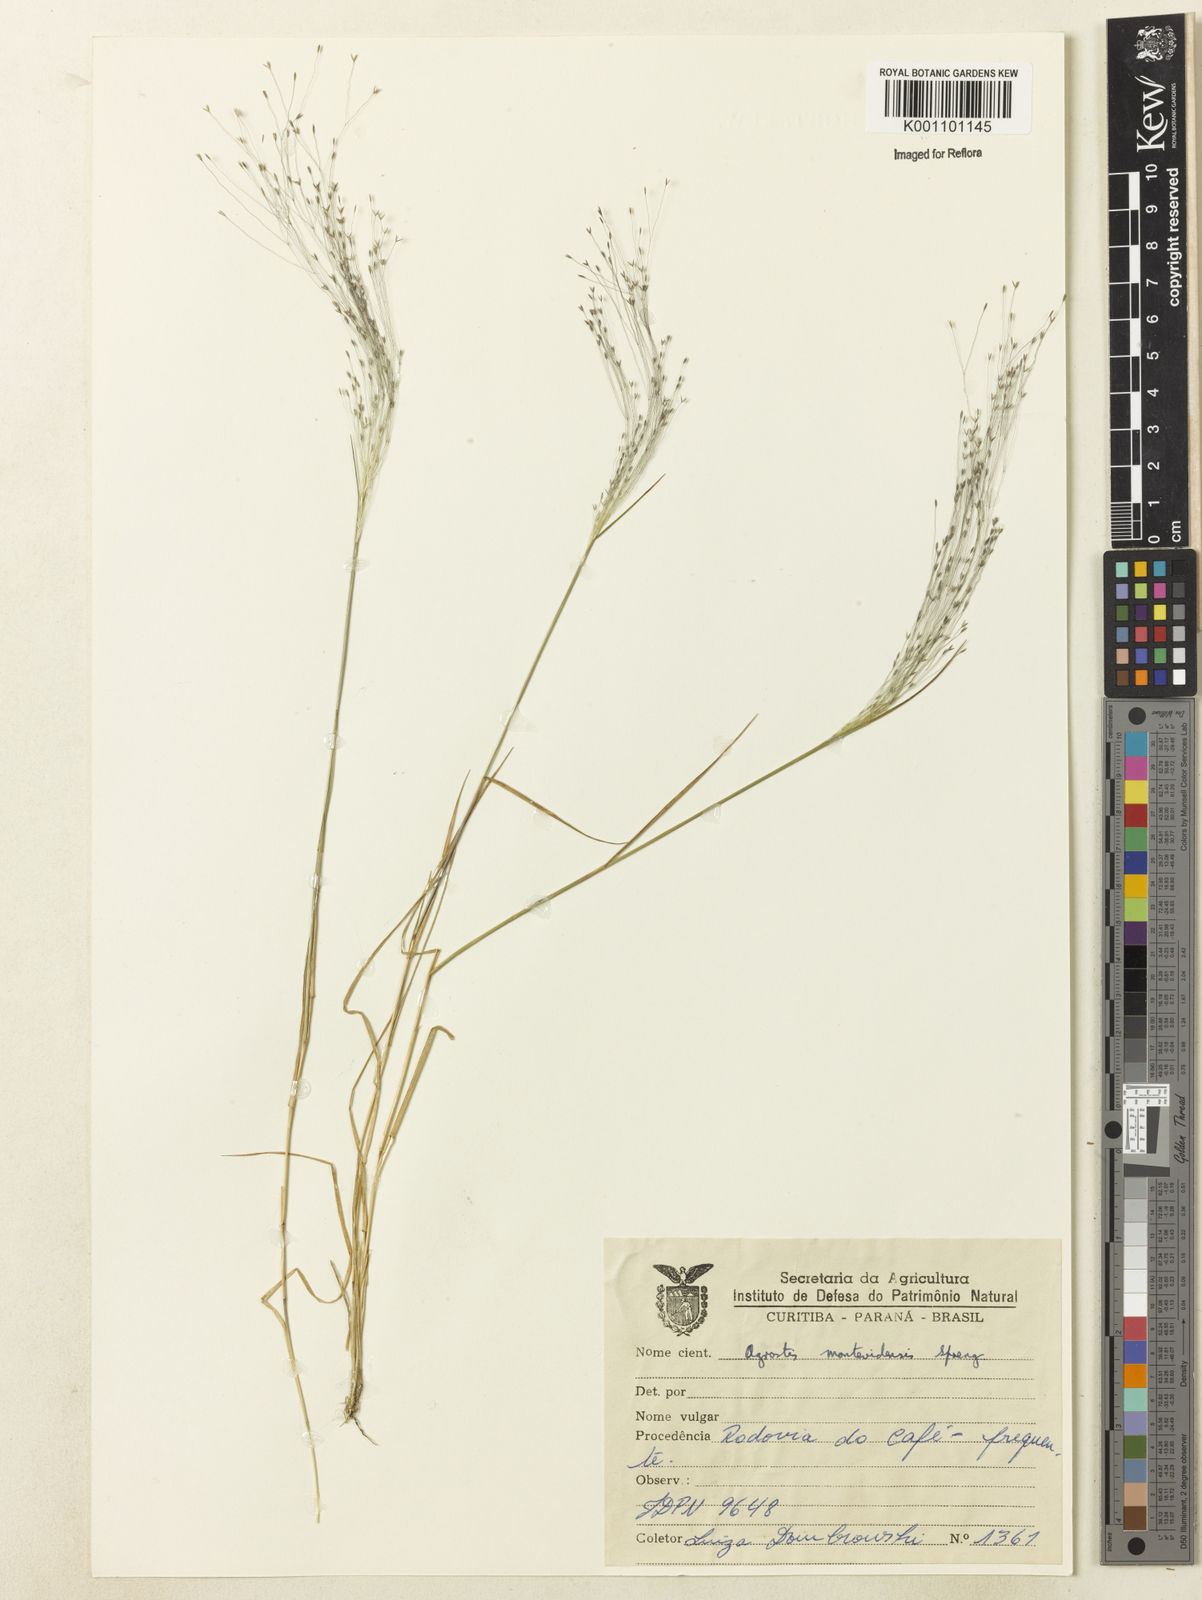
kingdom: Plantae
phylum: Tracheophyta
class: Liliopsida
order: Poales
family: Poaceae
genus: Agrostis
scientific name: Agrostis montevidensis
